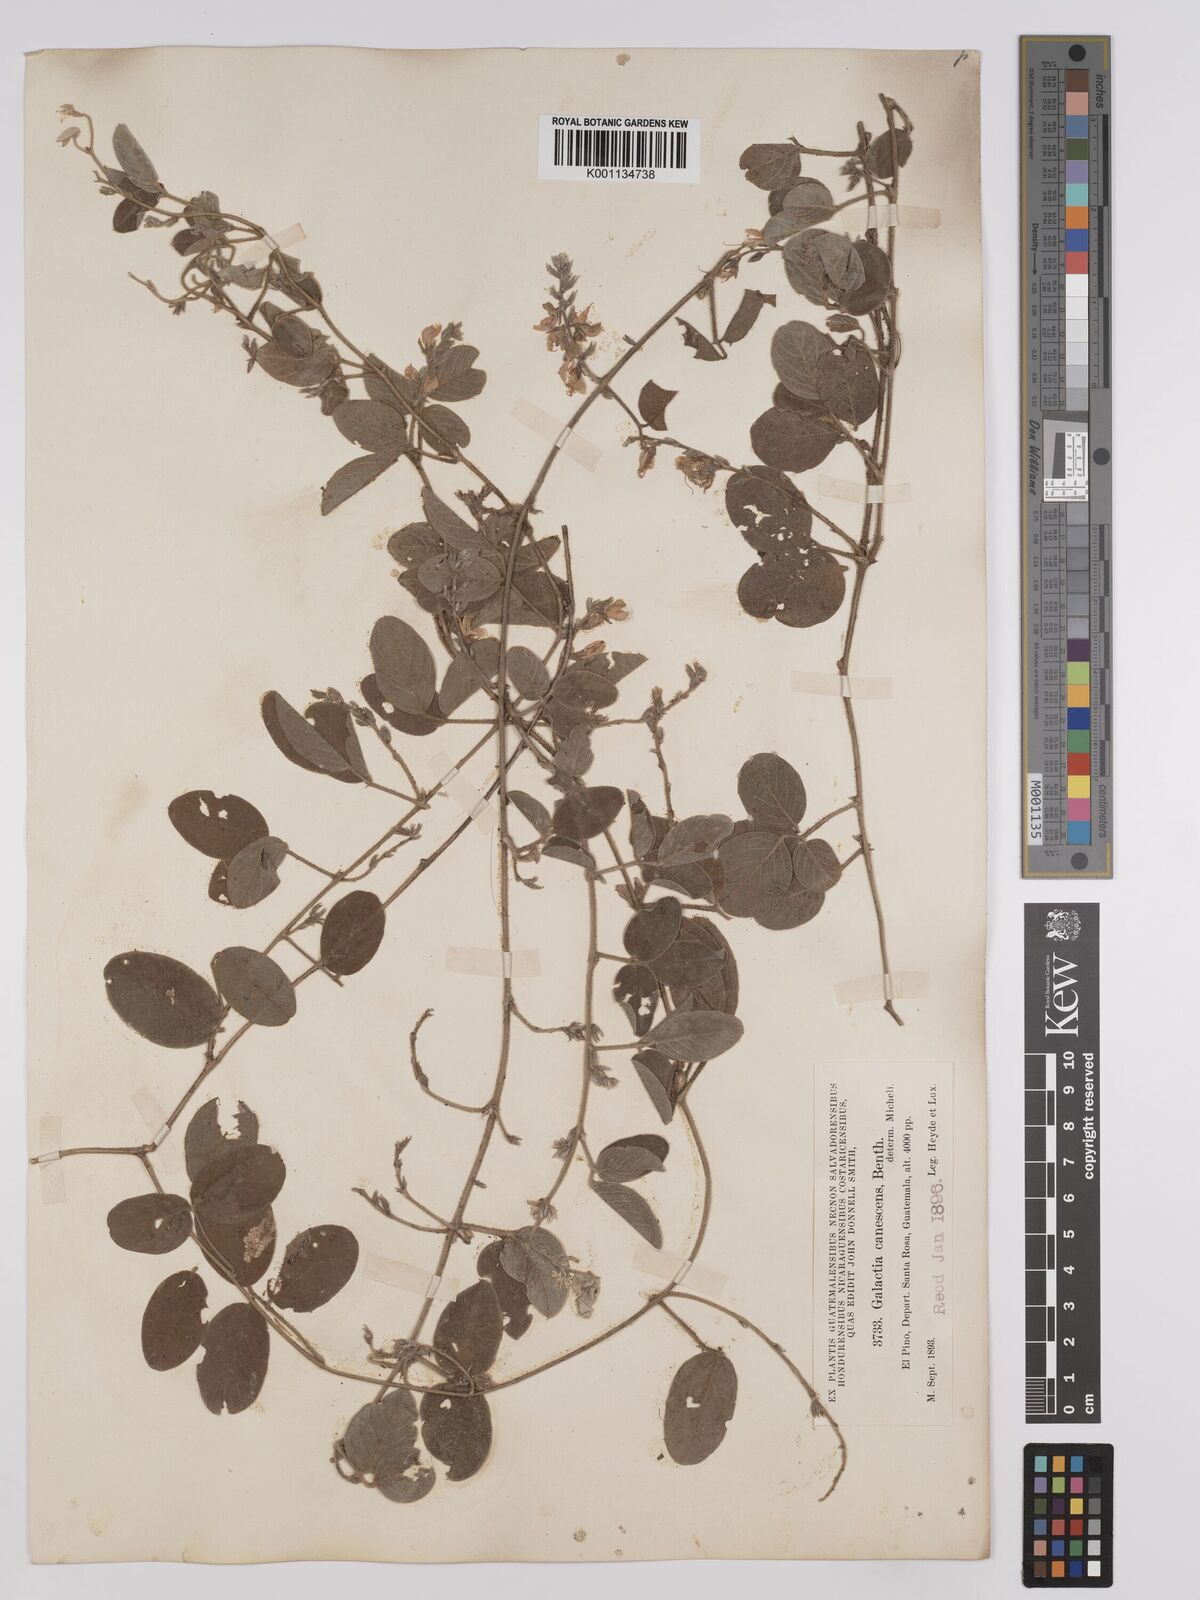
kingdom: Plantae
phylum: Tracheophyta
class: Magnoliopsida
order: Fabales
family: Fabaceae
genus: Galactia
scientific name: Galactia canescens
